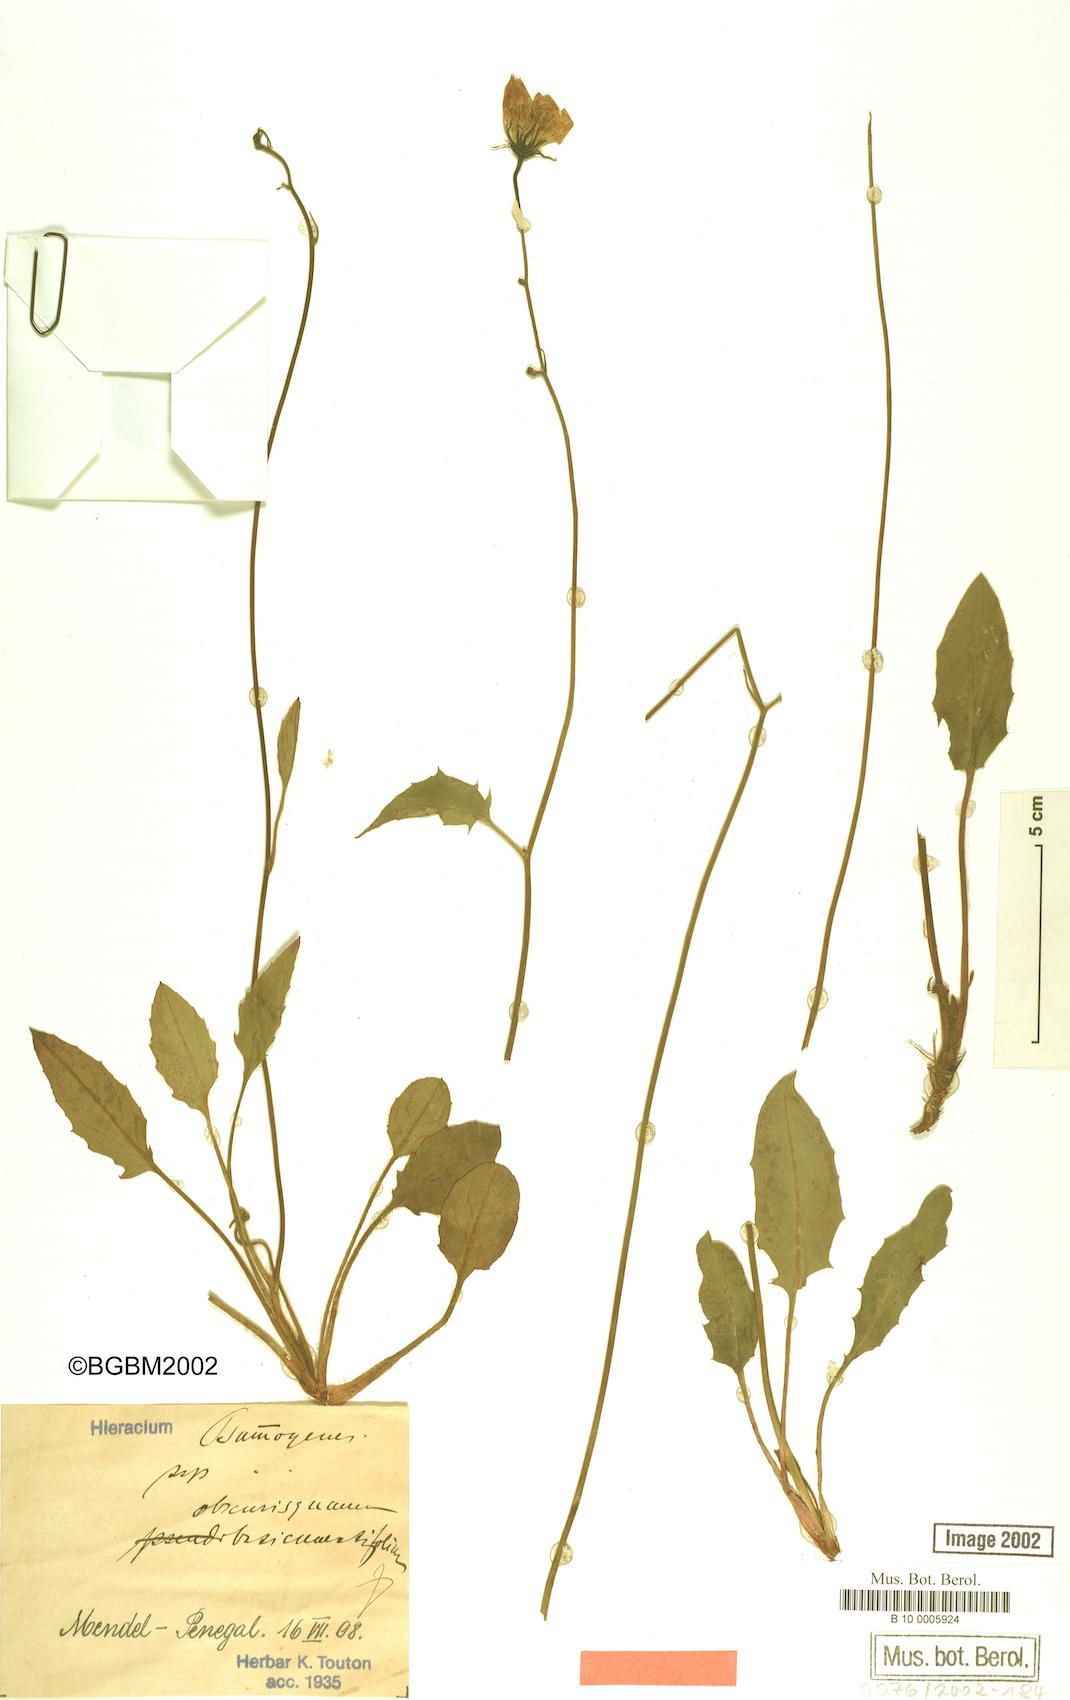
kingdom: Plantae
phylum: Tracheophyta
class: Magnoliopsida
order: Asterales
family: Asteraceae
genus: Hieracium
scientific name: Hieracium bifidum
